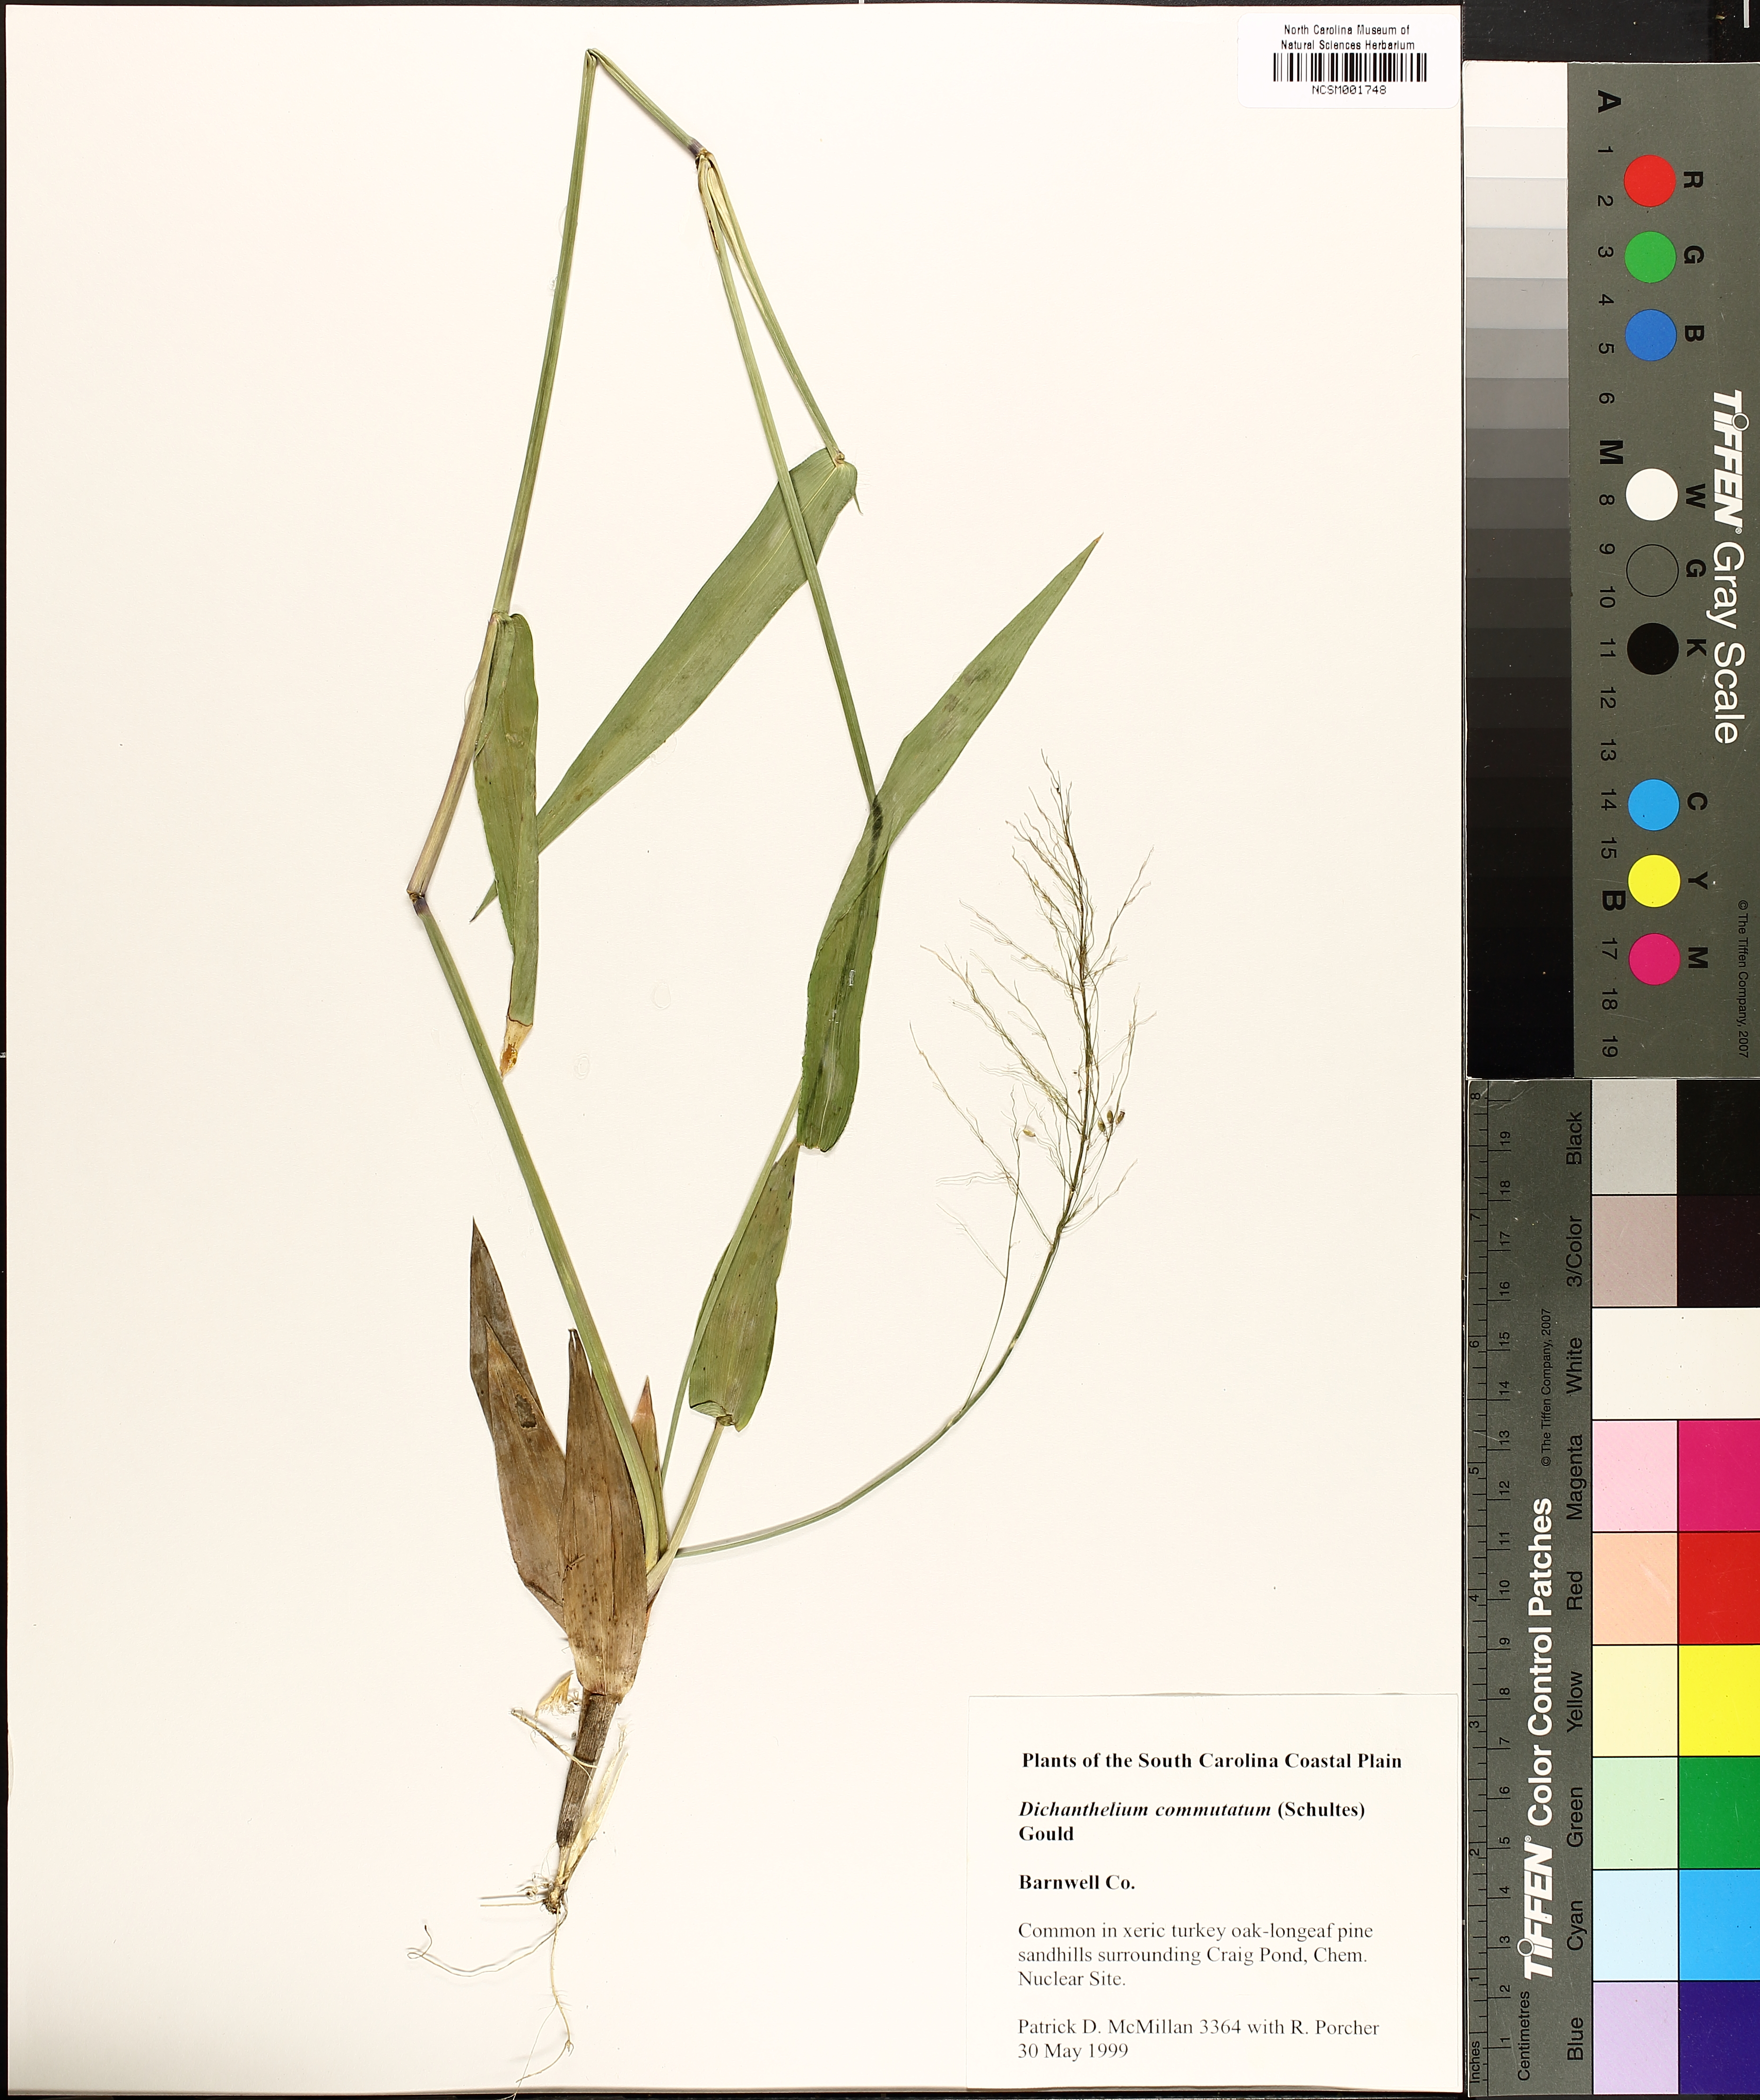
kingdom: Plantae
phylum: Tracheophyta
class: Liliopsida
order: Poales
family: Poaceae
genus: Dichanthelium
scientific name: Dichanthelium commutatum
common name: Variable witchgrass
